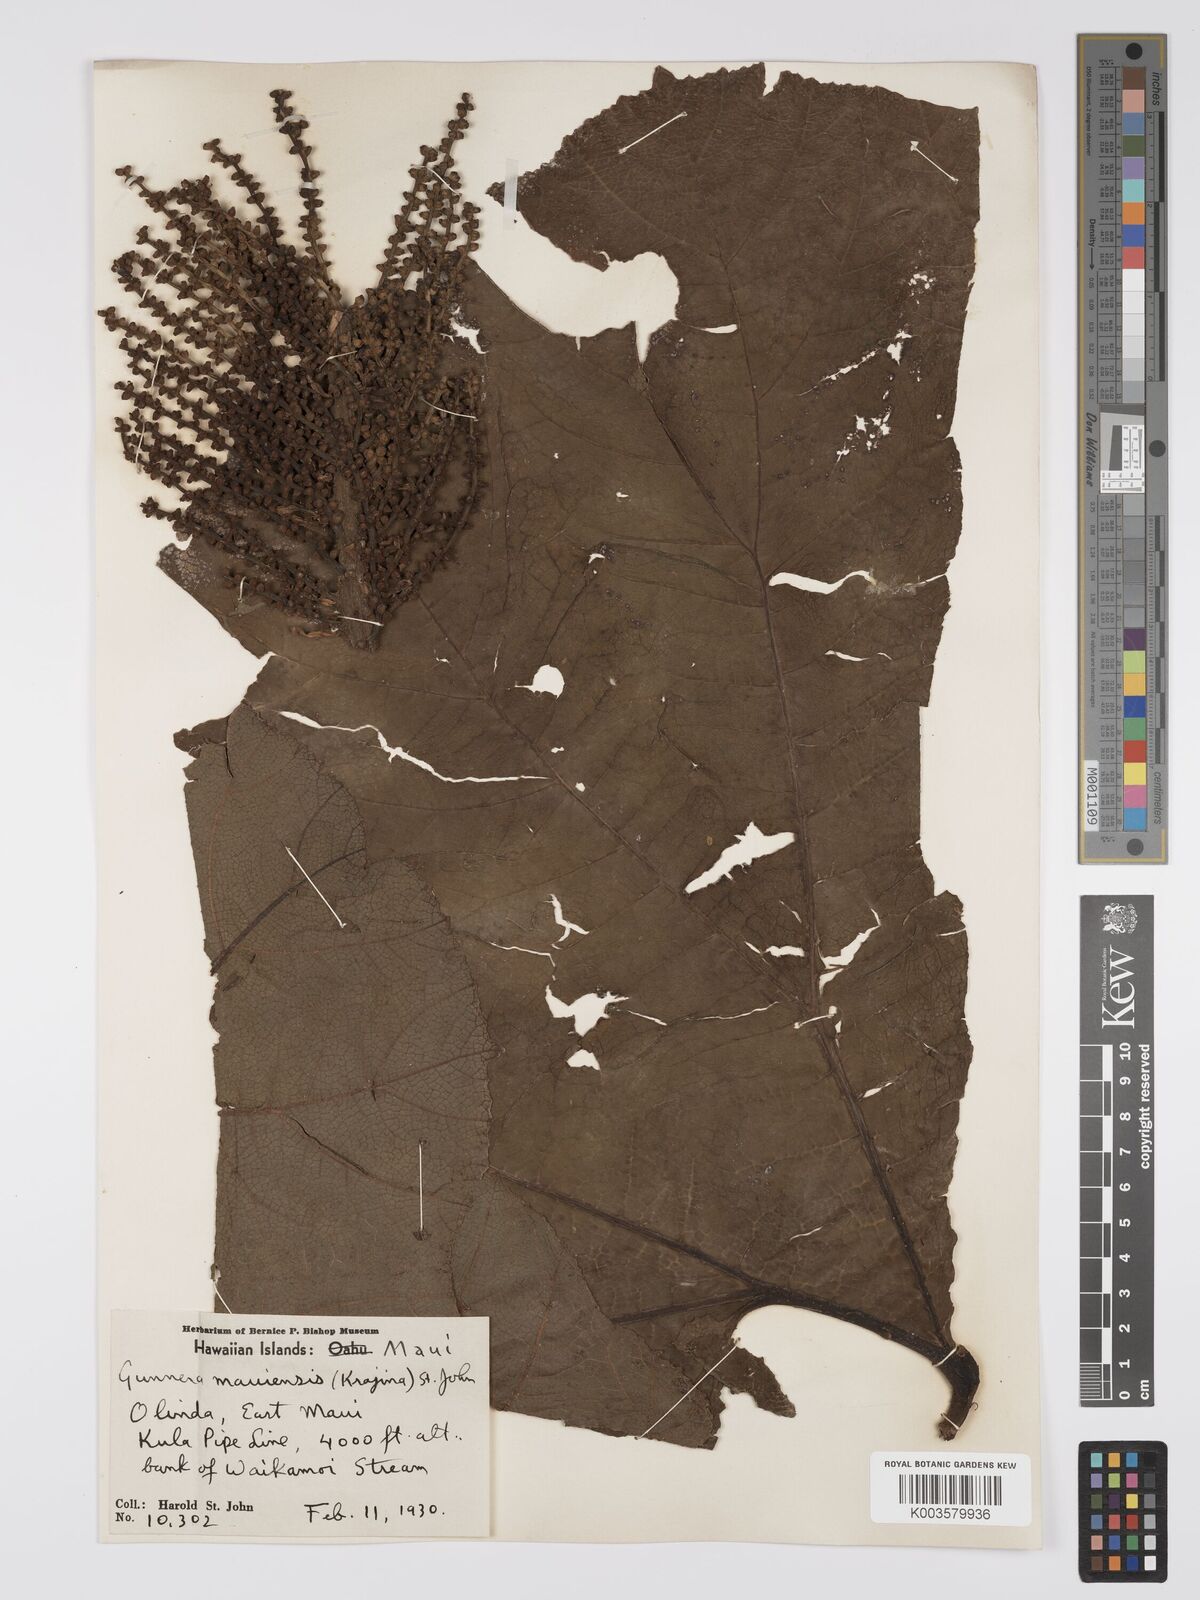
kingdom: Plantae
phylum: Tracheophyta
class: Magnoliopsida
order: Gunnerales
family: Gunneraceae
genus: Gunnera
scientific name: Gunnera petaloidea
